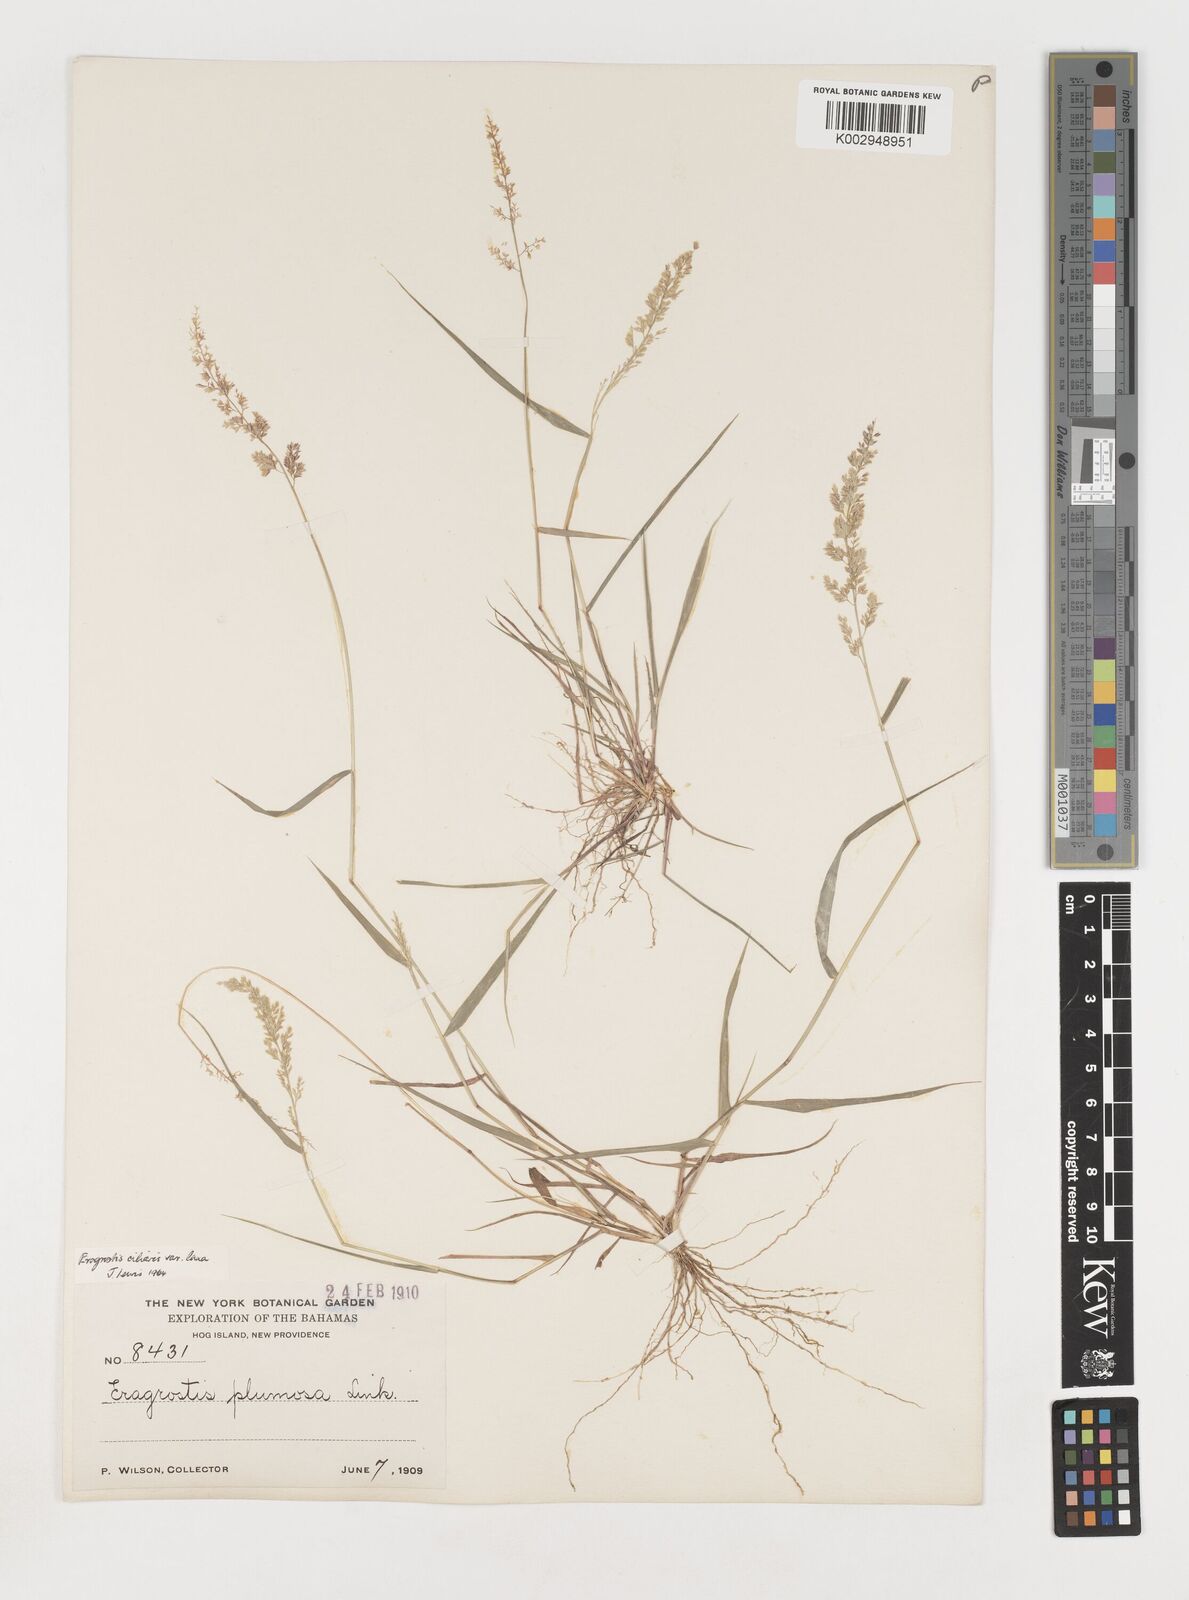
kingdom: Plantae
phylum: Tracheophyta
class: Liliopsida
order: Poales
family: Poaceae
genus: Eragrostis
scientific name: Eragrostis ciliaris
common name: Gophertail lovegrass
